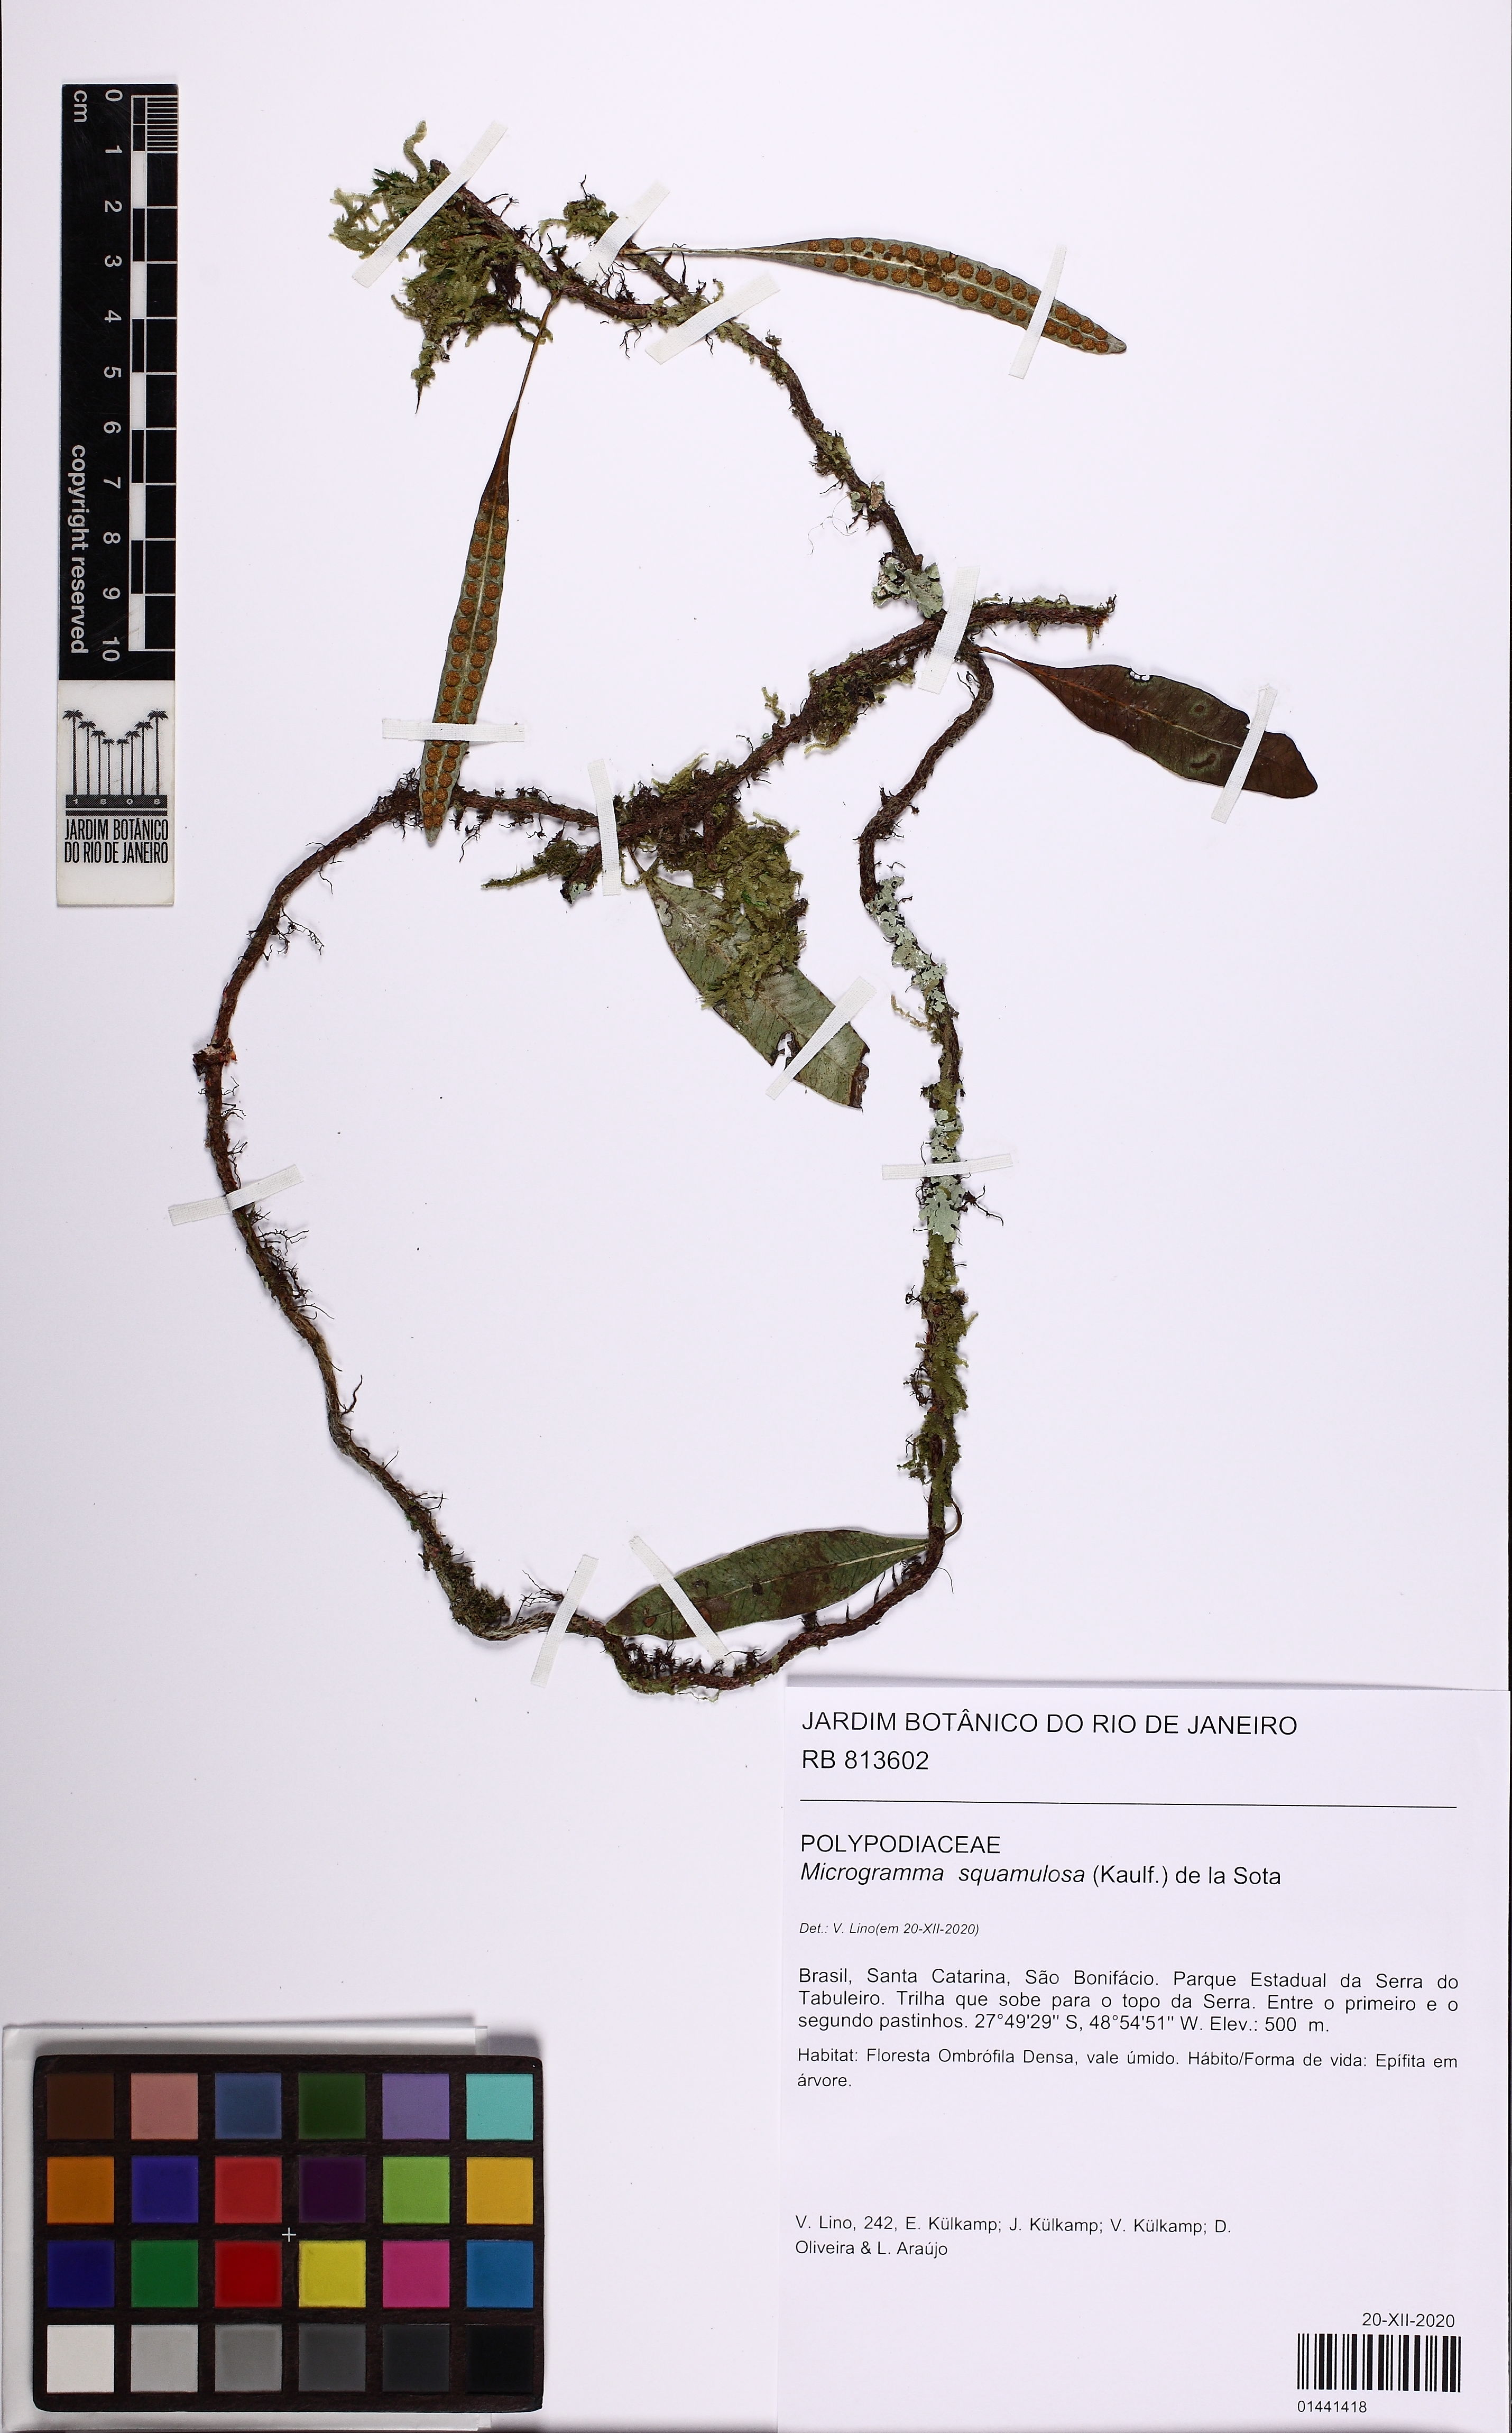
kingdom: Plantae
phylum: Tracheophyta
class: Polypodiopsida
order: Polypodiales
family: Polypodiaceae
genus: Microgramma
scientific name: Microgramma squamulosa
